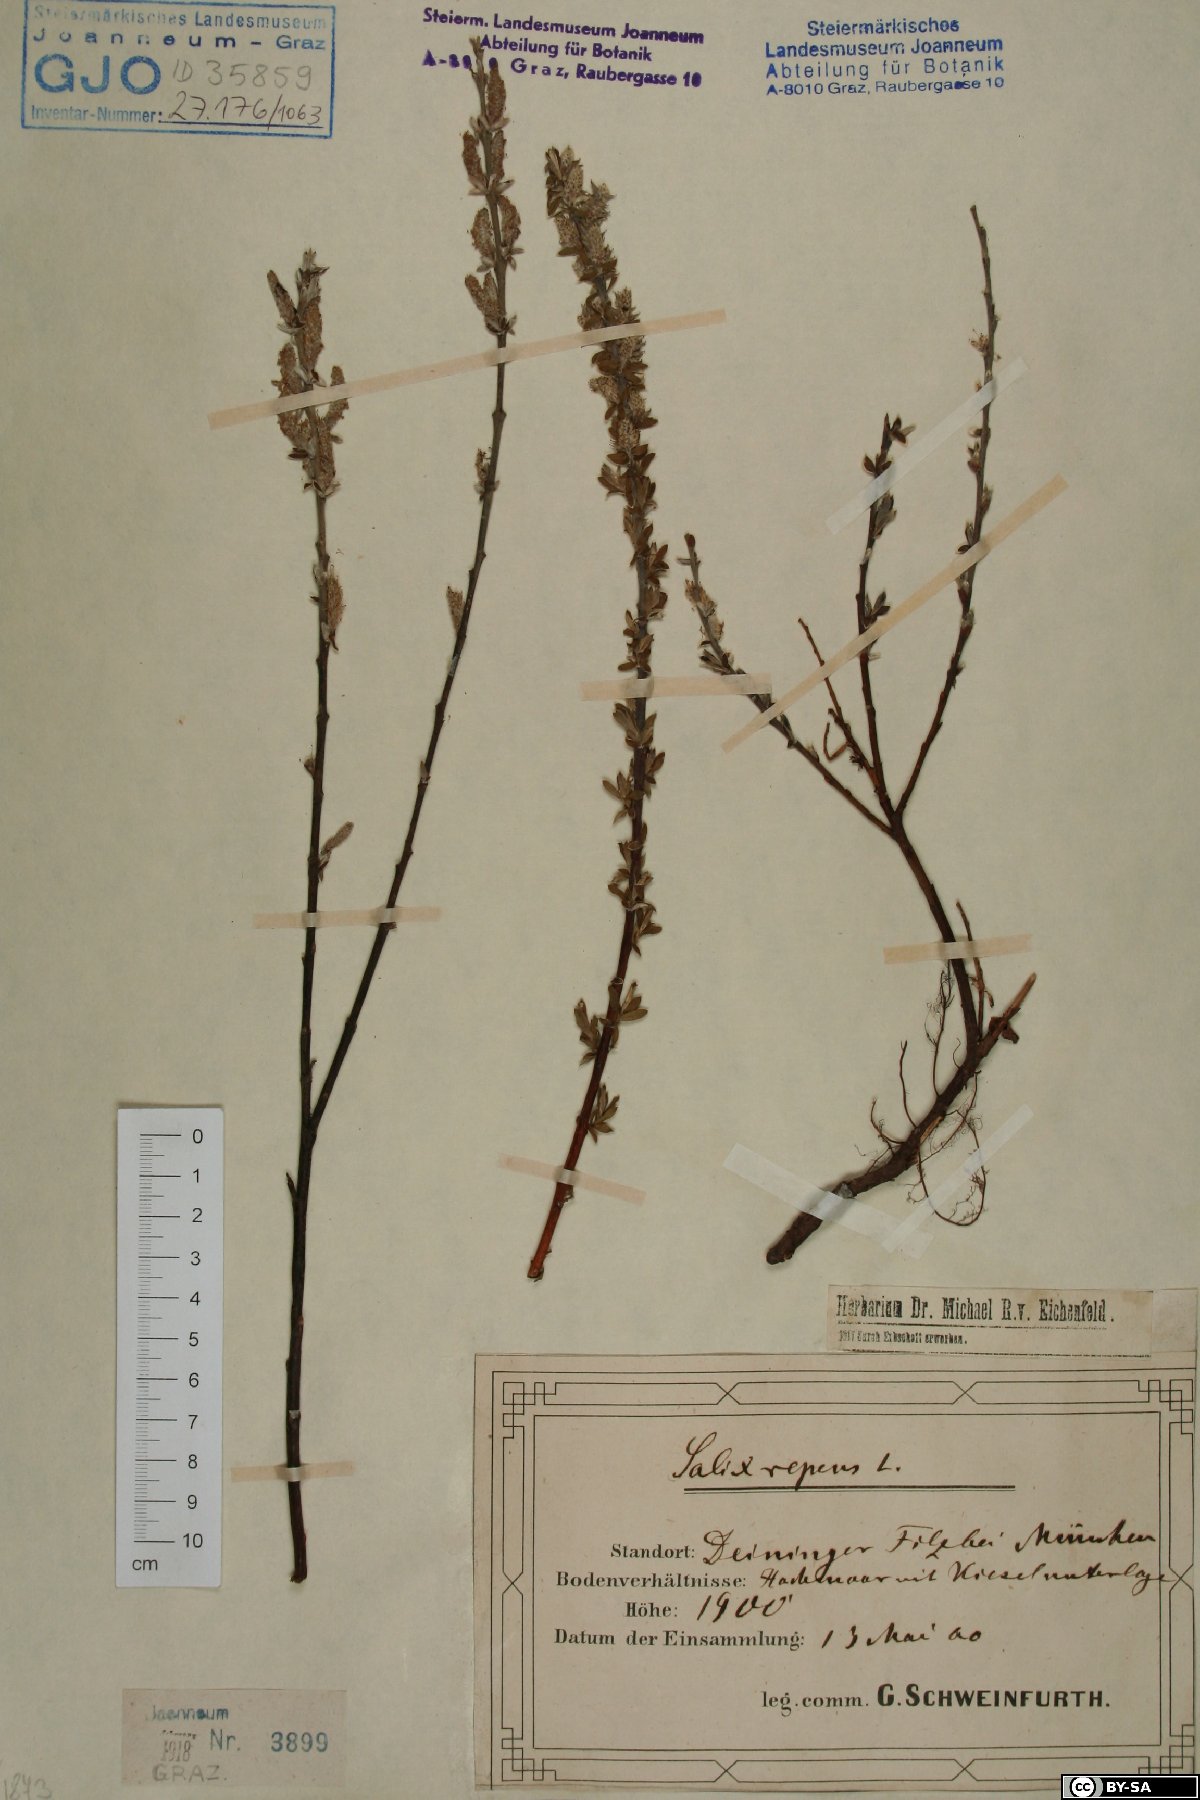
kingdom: Plantae
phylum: Tracheophyta
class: Magnoliopsida
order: Malpighiales
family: Salicaceae
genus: Salix
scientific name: Salix repens
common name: Creeping willow
